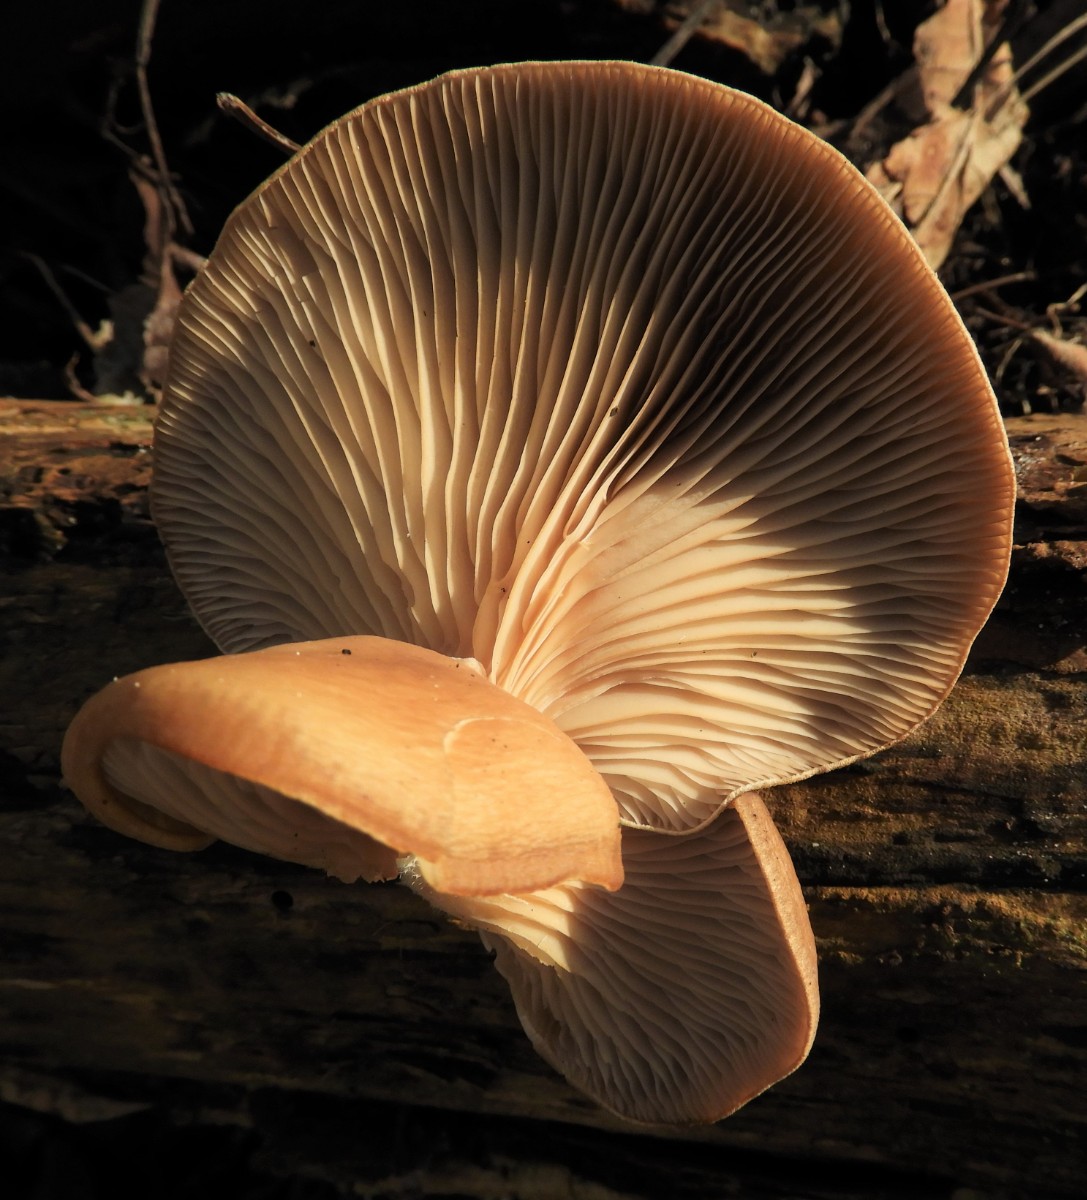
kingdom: Fungi
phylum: Basidiomycota
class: Agaricomycetes
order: Agaricales
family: Pleurotaceae
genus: Pleurotus
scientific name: Pleurotus ostreatus
